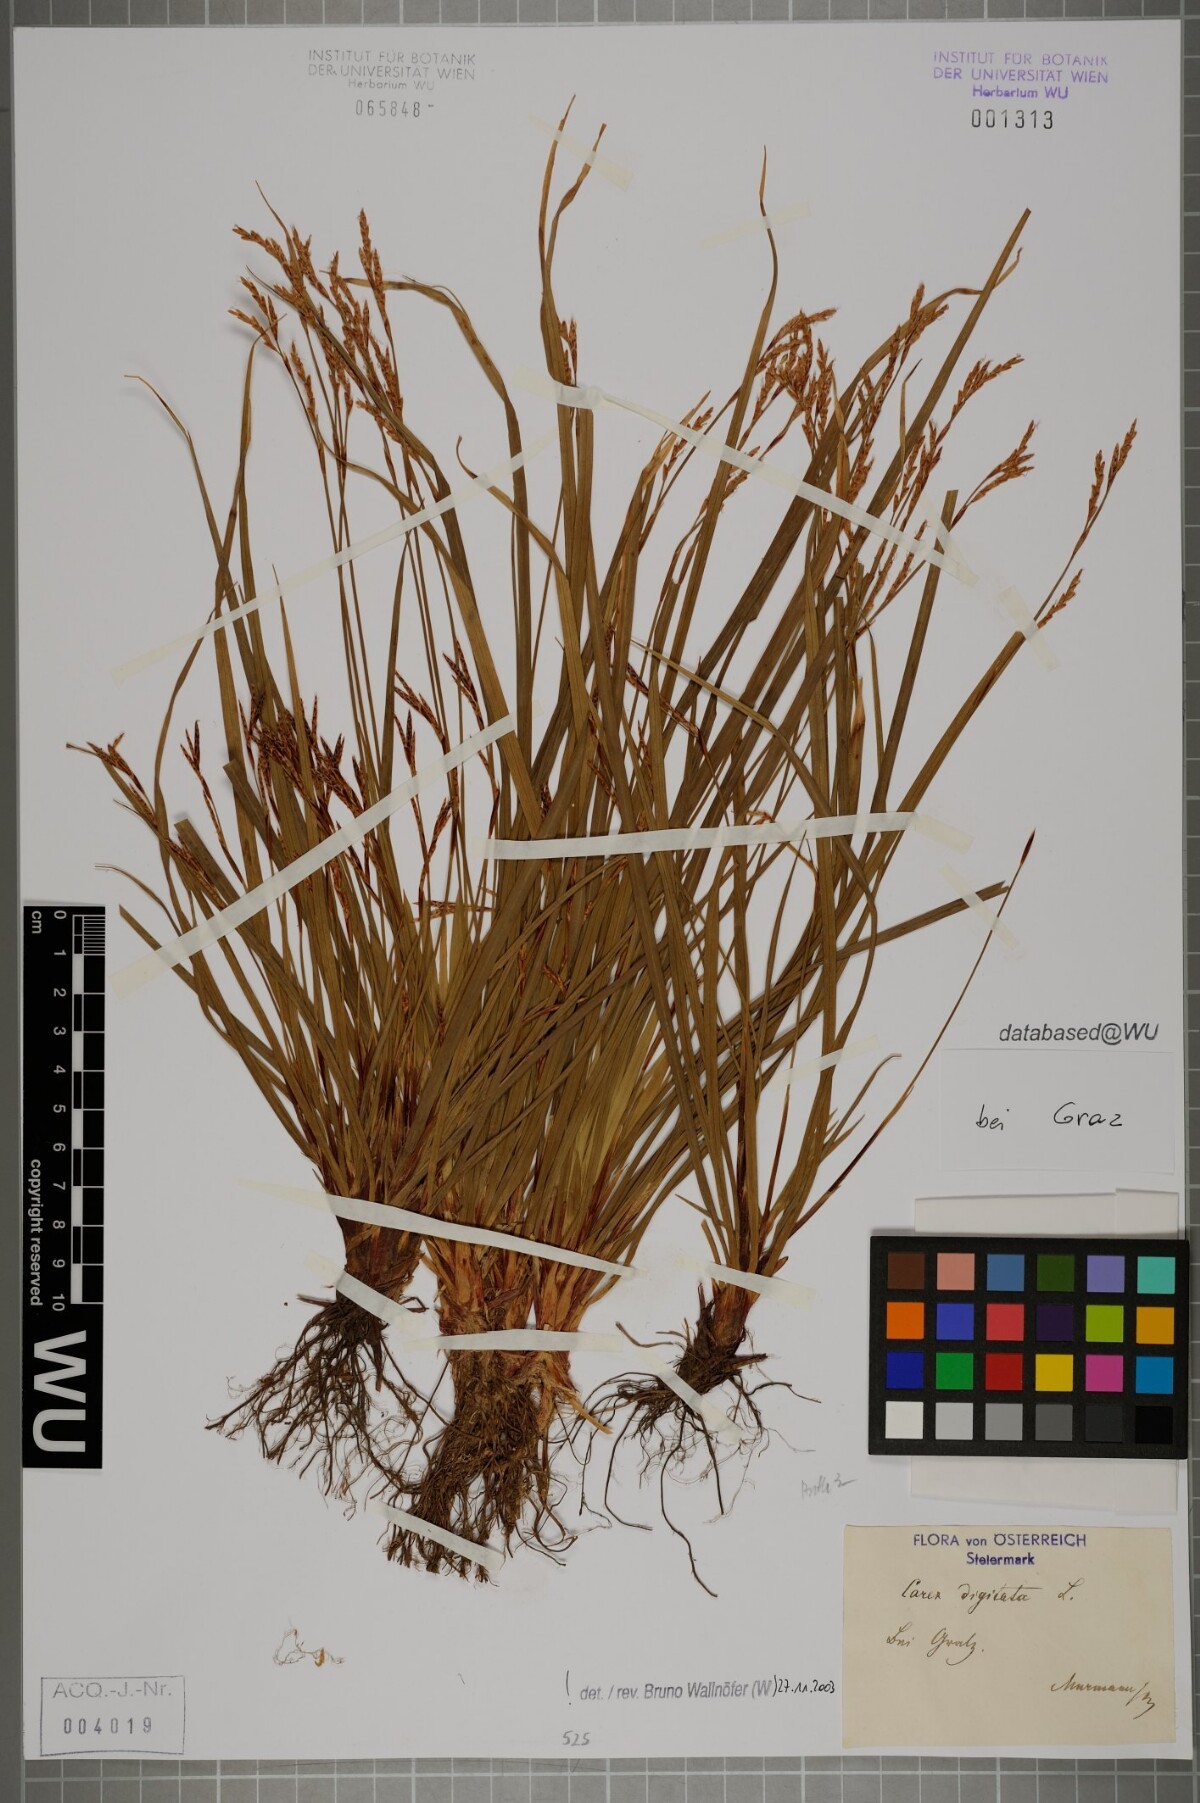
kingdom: Plantae
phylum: Tracheophyta
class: Liliopsida
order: Poales
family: Cyperaceae
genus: Carex
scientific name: Carex digitata
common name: Fingered sedge
